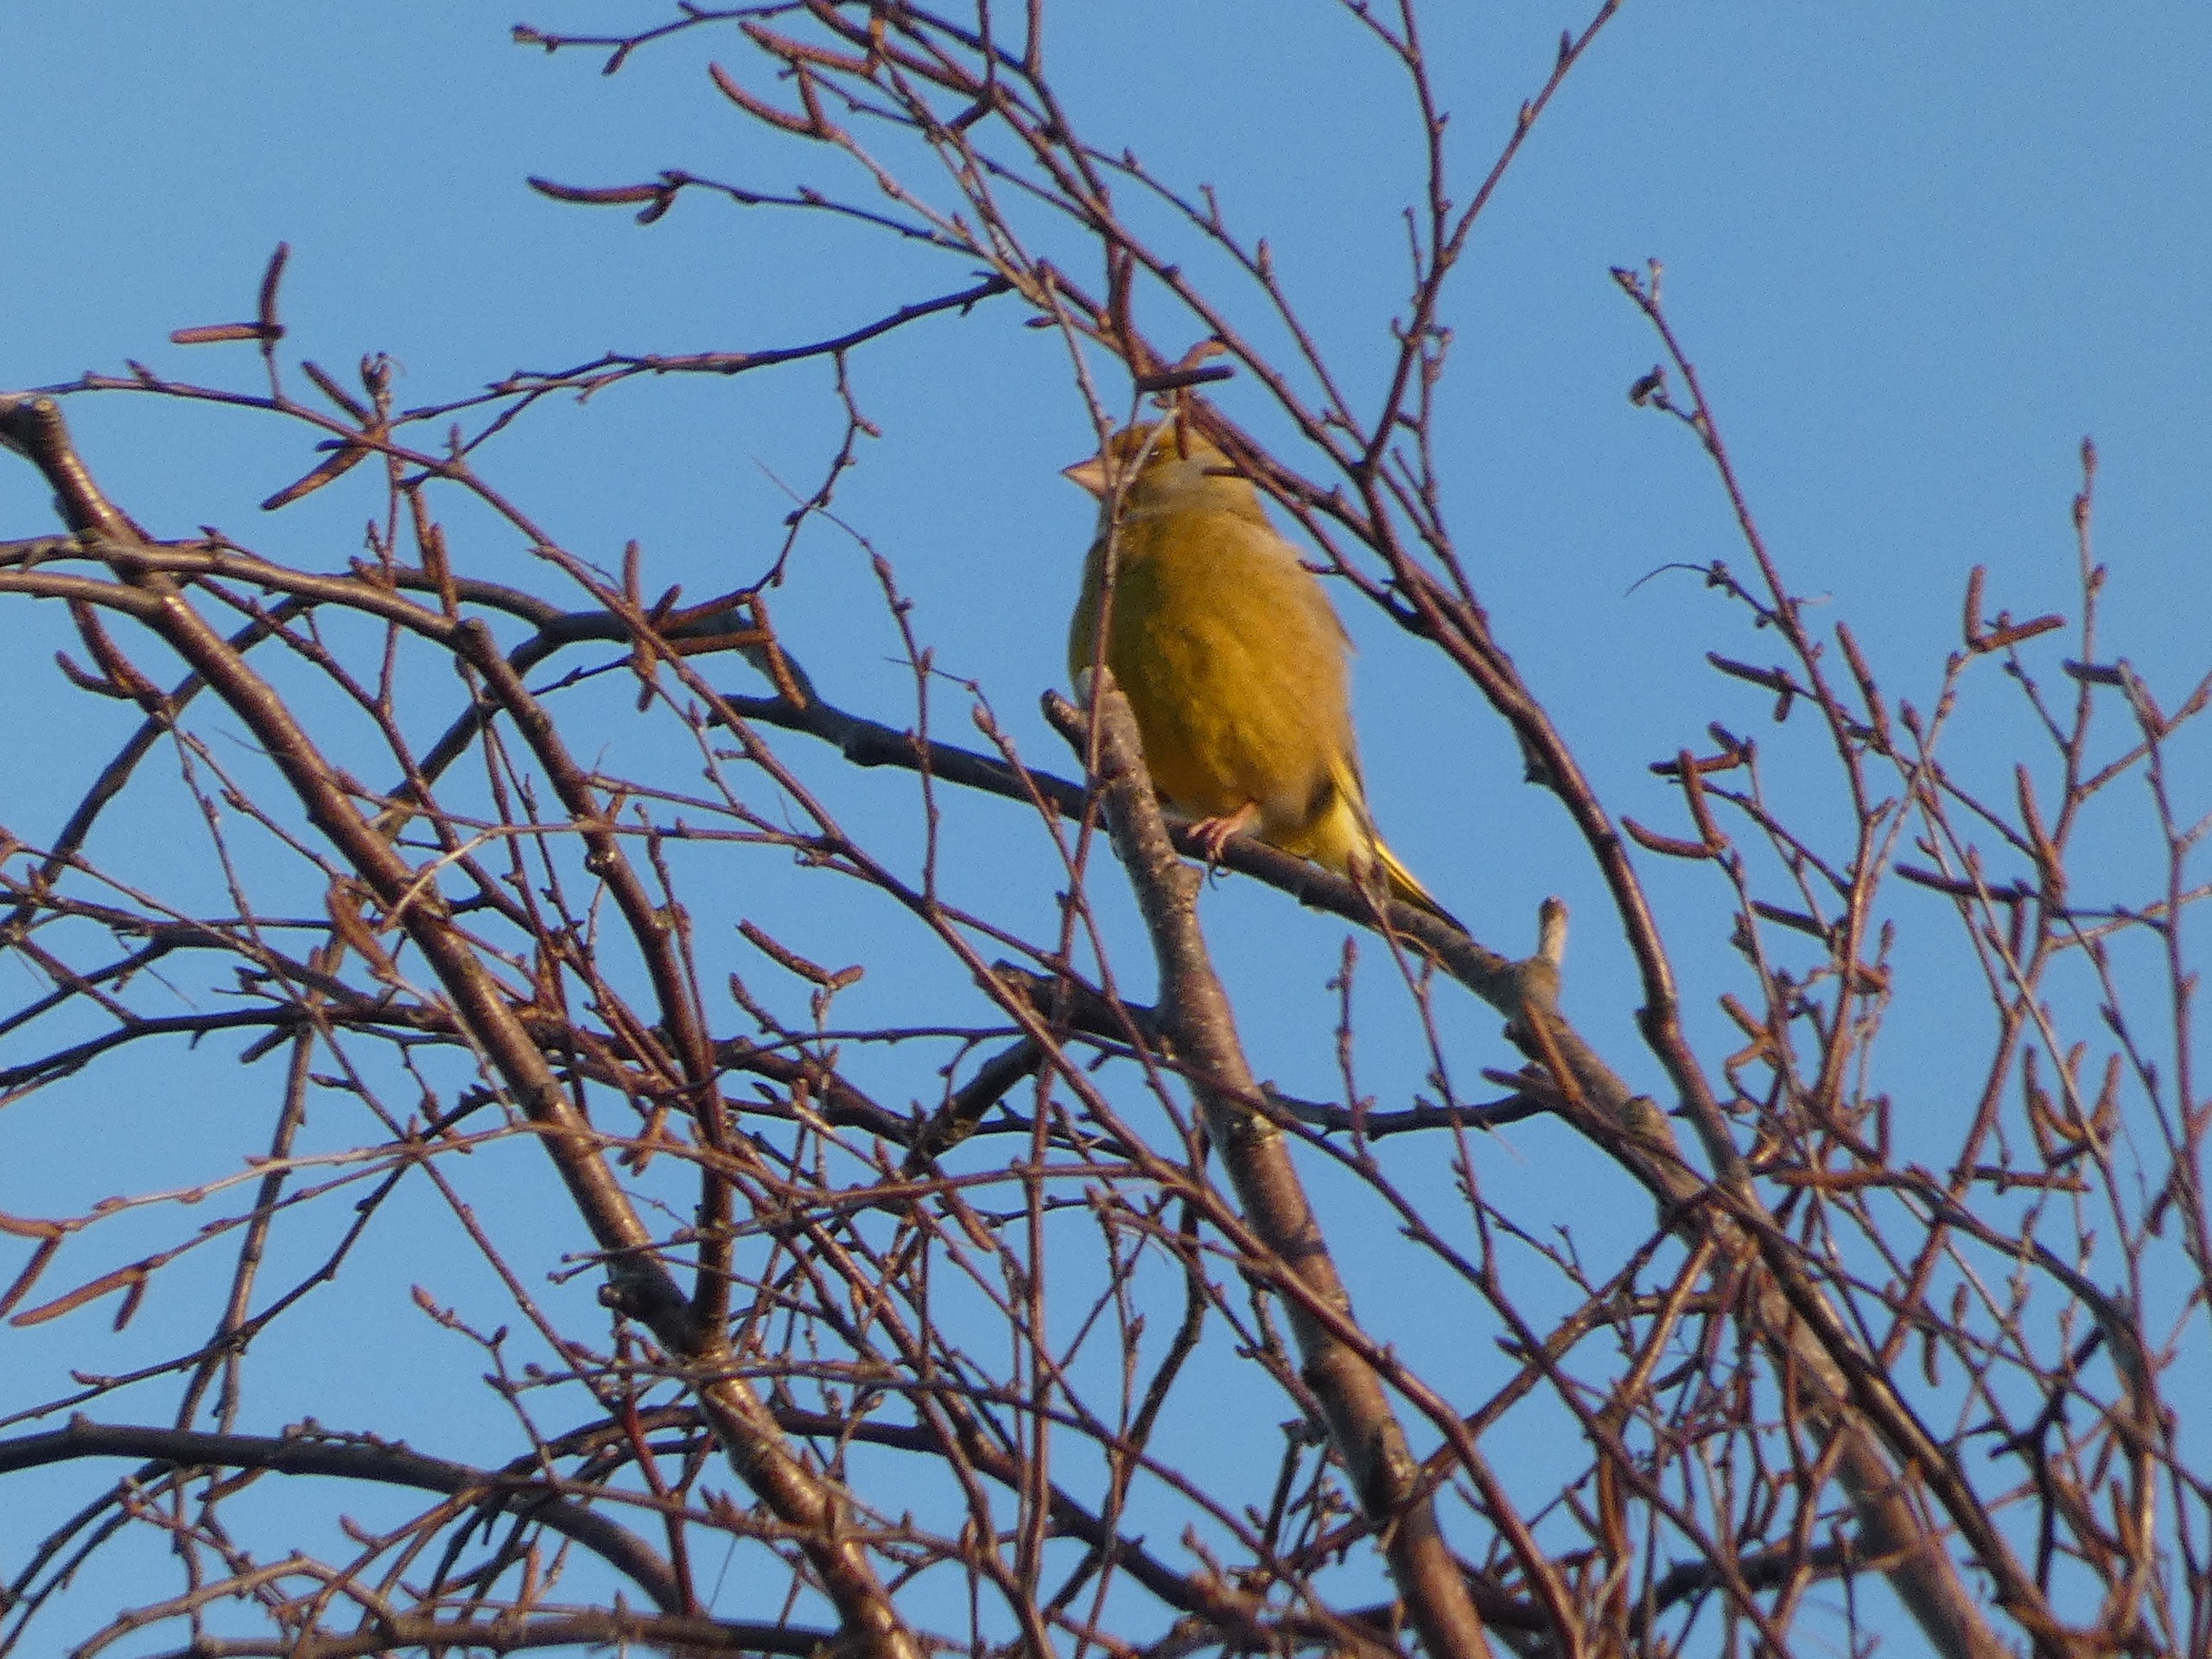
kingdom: Plantae
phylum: Tracheophyta
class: Liliopsida
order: Poales
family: Poaceae
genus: Chloris
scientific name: Chloris chloris
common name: Grønirisk
